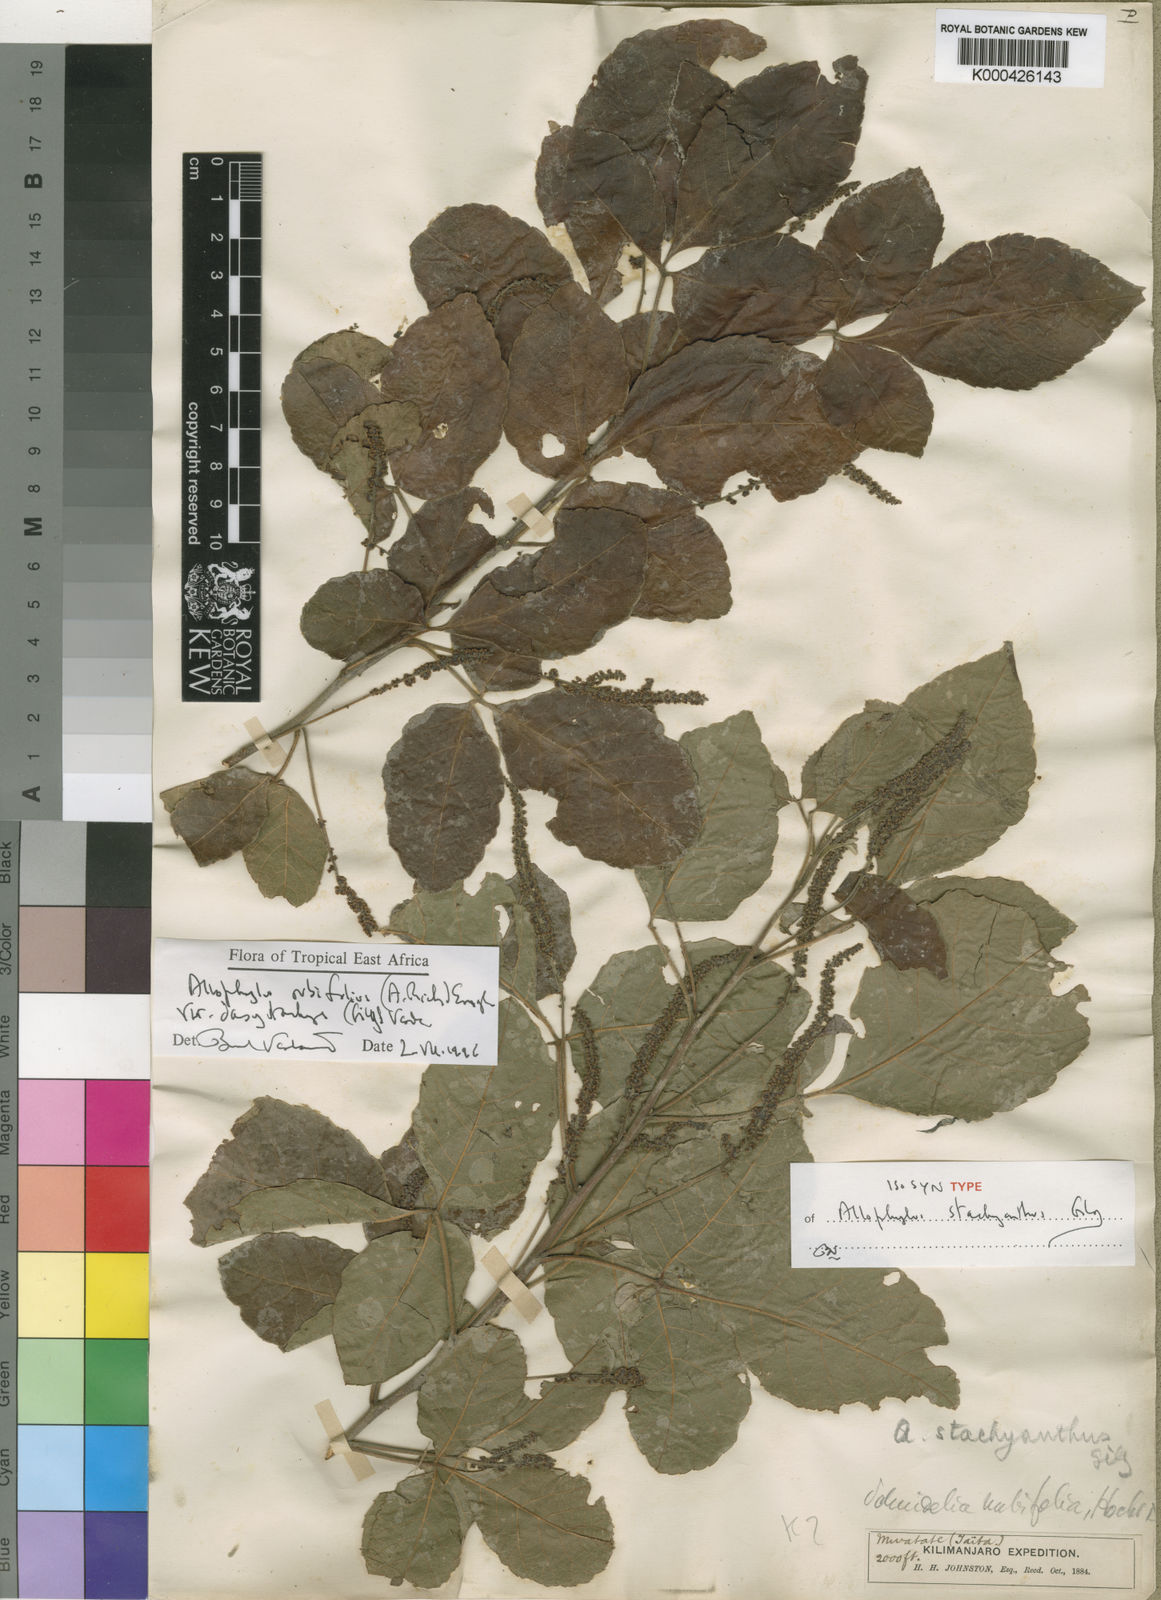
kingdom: Plantae
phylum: Tracheophyta
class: Magnoliopsida
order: Sapindales
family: Sapindaceae
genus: Allophylus
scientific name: Allophylus rubifolius
